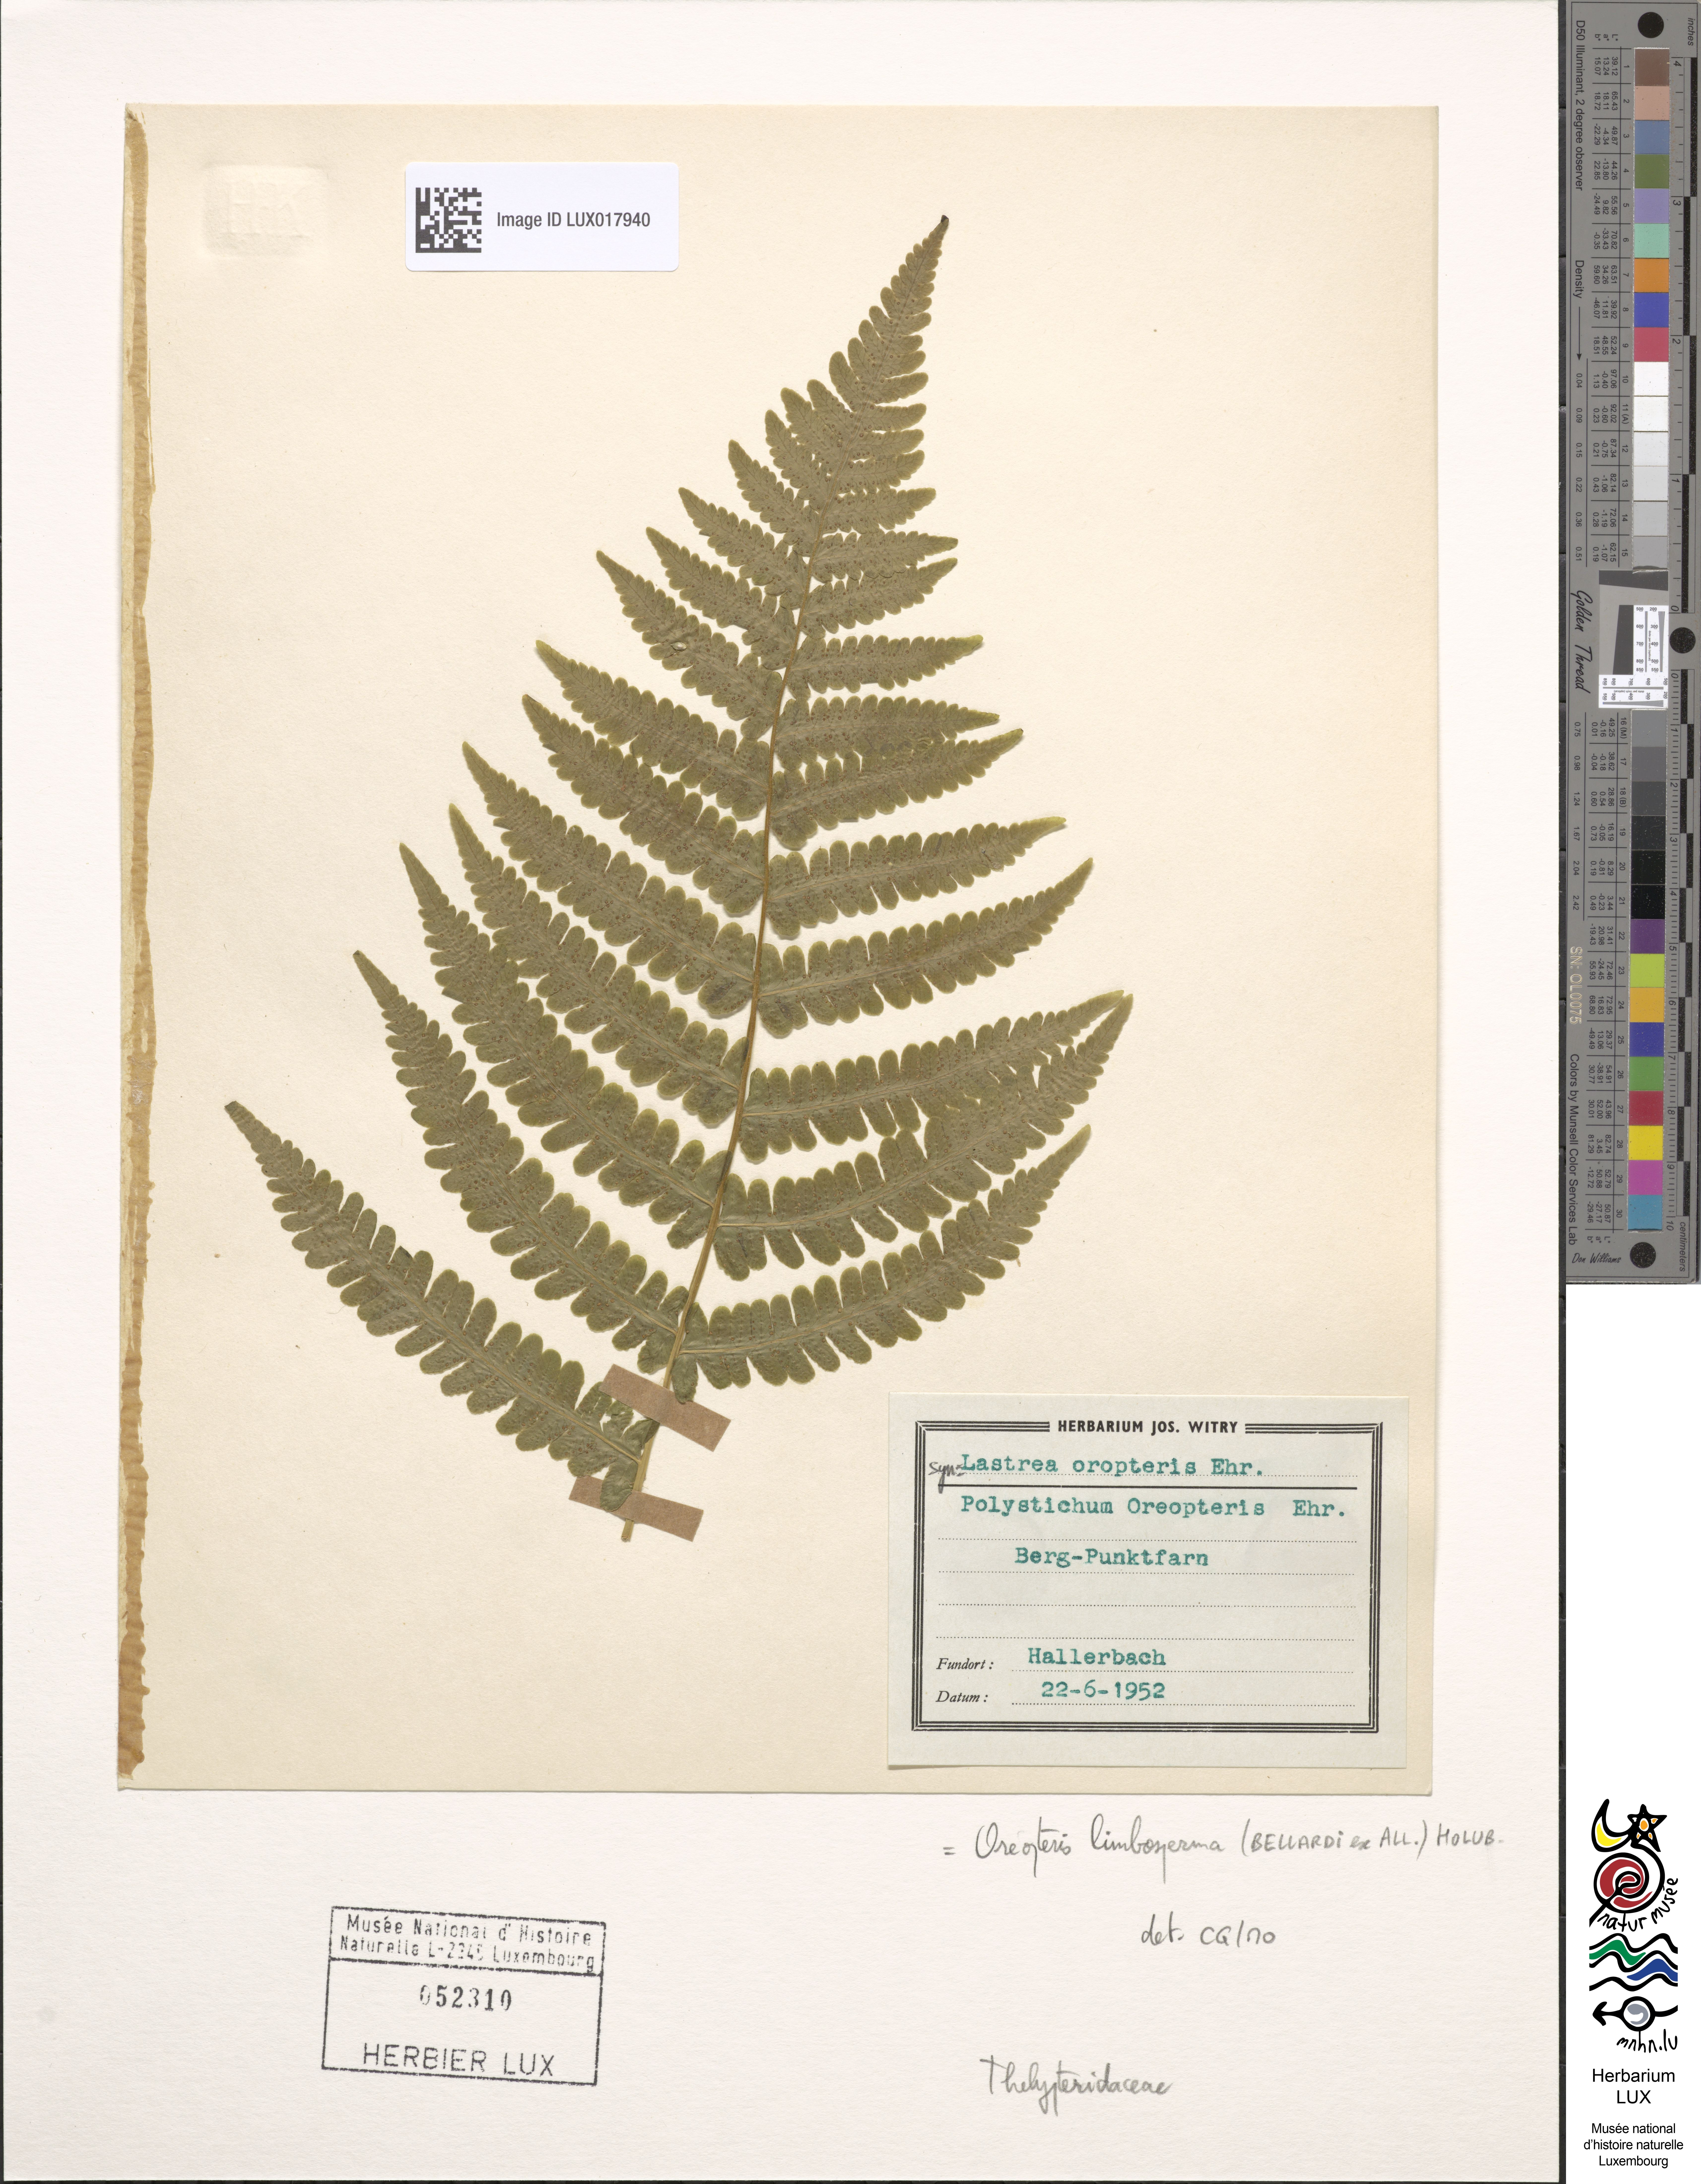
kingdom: Plantae
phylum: Tracheophyta
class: Polypodiopsida
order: Polypodiales
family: Thelypteridaceae
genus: Oreopteris
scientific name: Oreopteris limbosperma
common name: Lemon-scented fern
